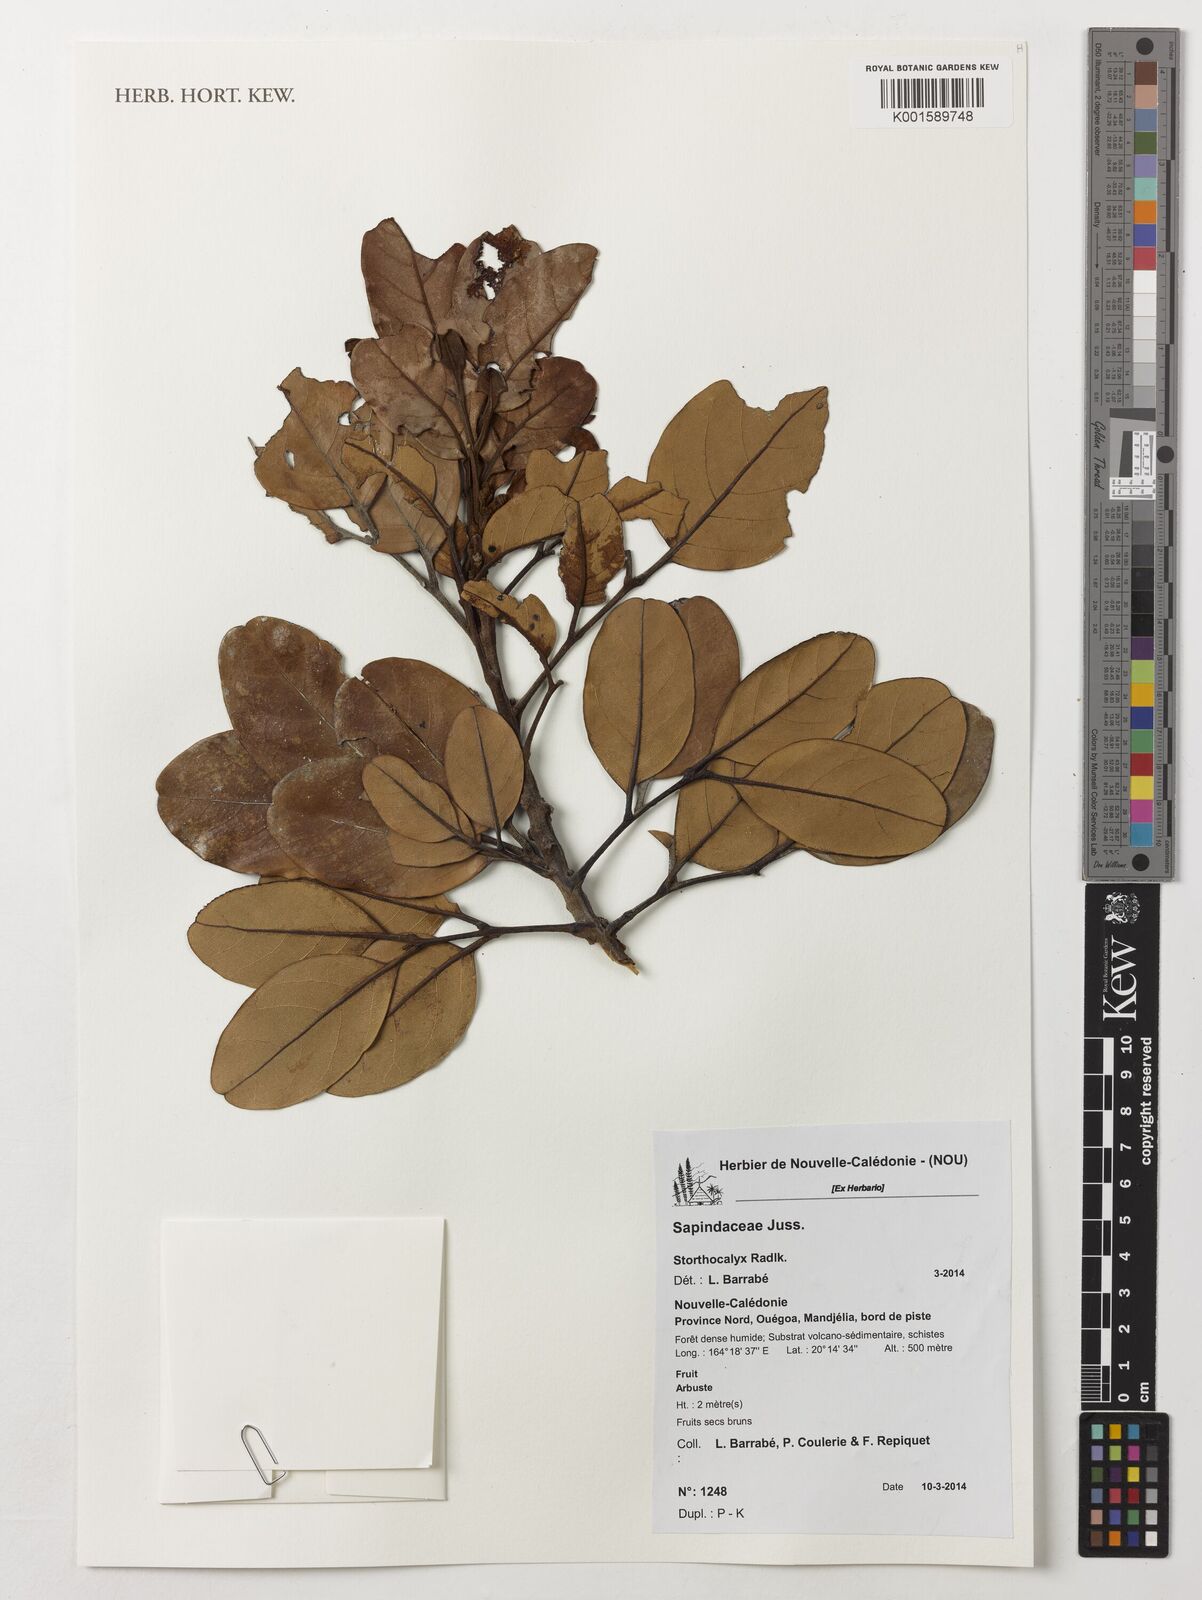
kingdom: Plantae
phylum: Tracheophyta
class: Magnoliopsida
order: Sapindales
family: Sapindaceae
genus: Storthocalyx
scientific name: Storthocalyx
